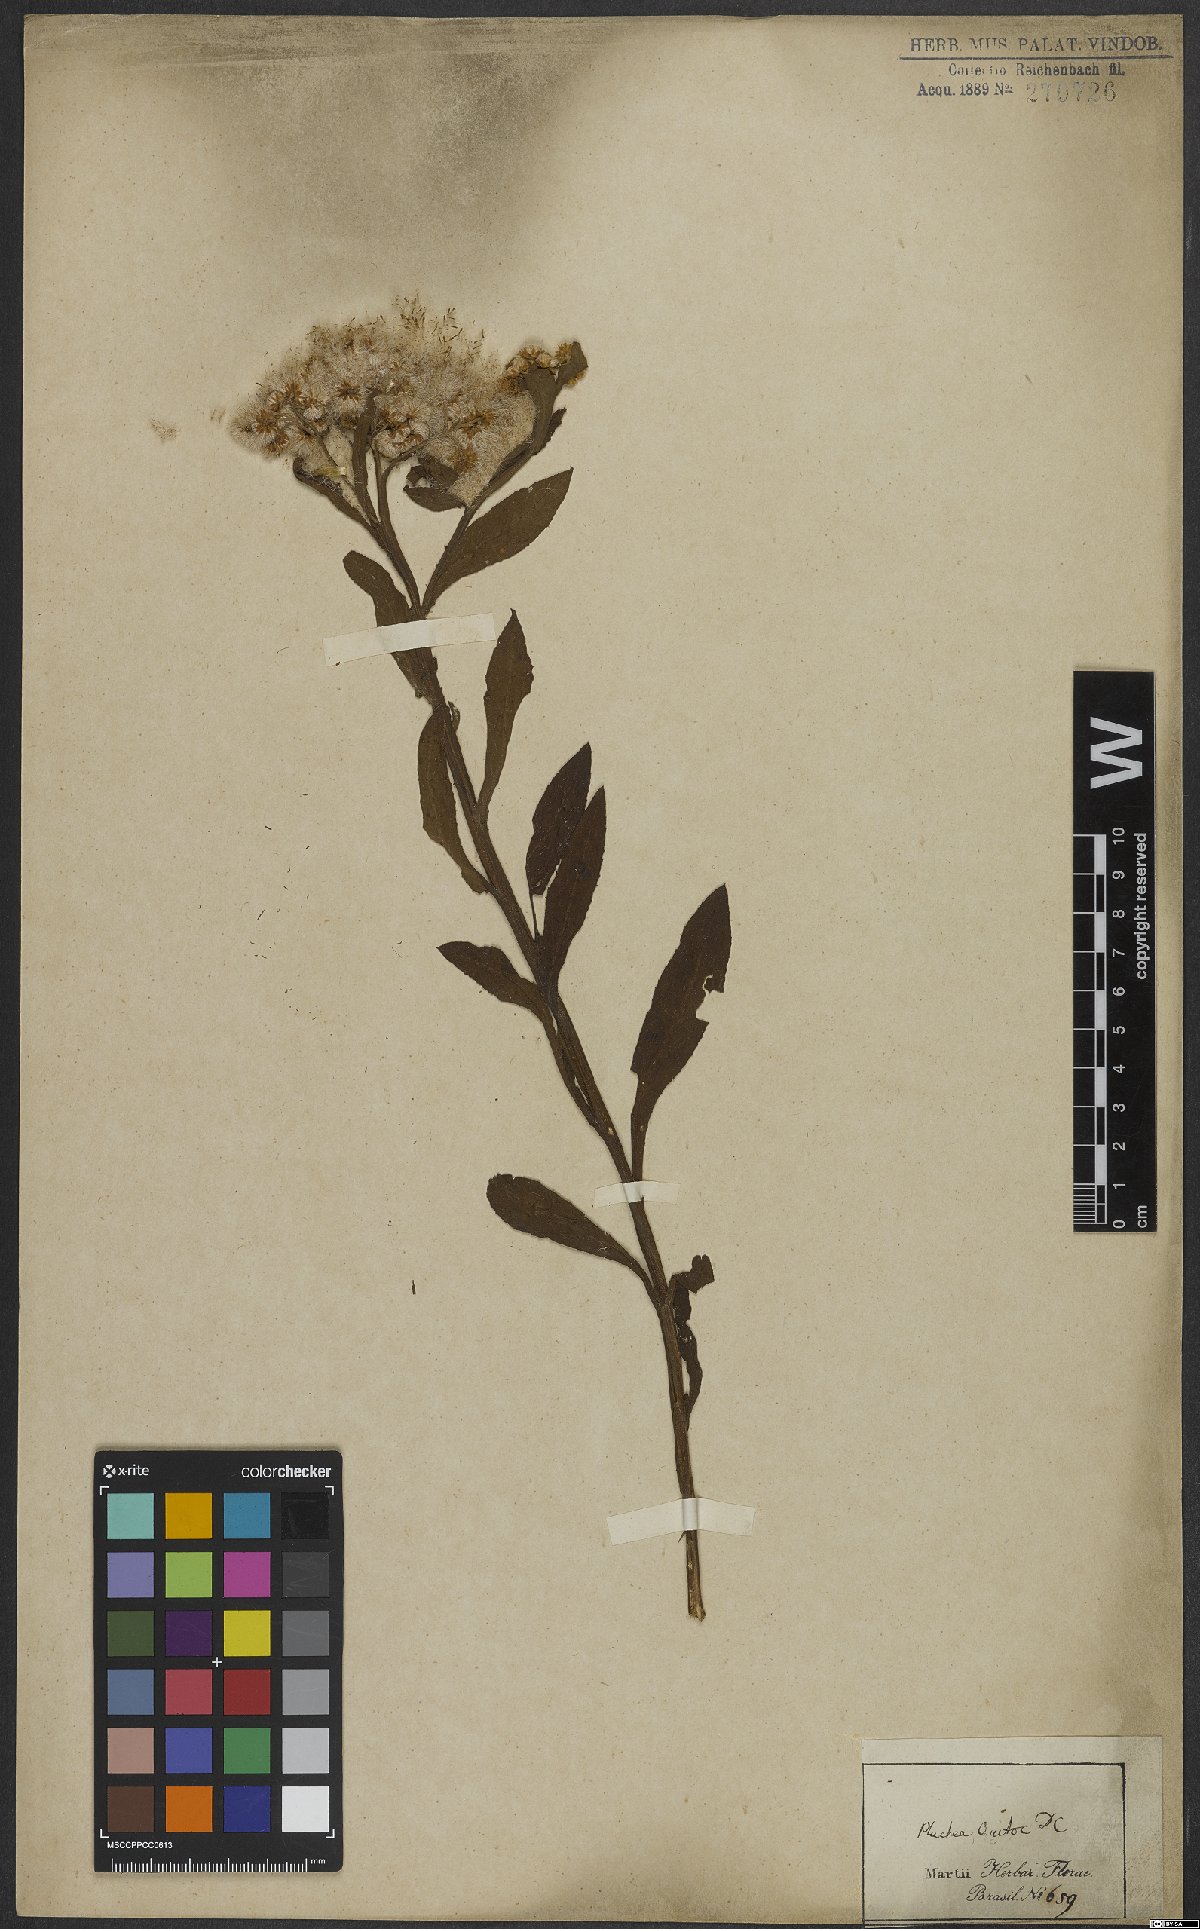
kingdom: Plantae
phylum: Tracheophyta
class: Magnoliopsida
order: Asterales
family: Asteraceae
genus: Pluchea
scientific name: Pluchea sagittalis
